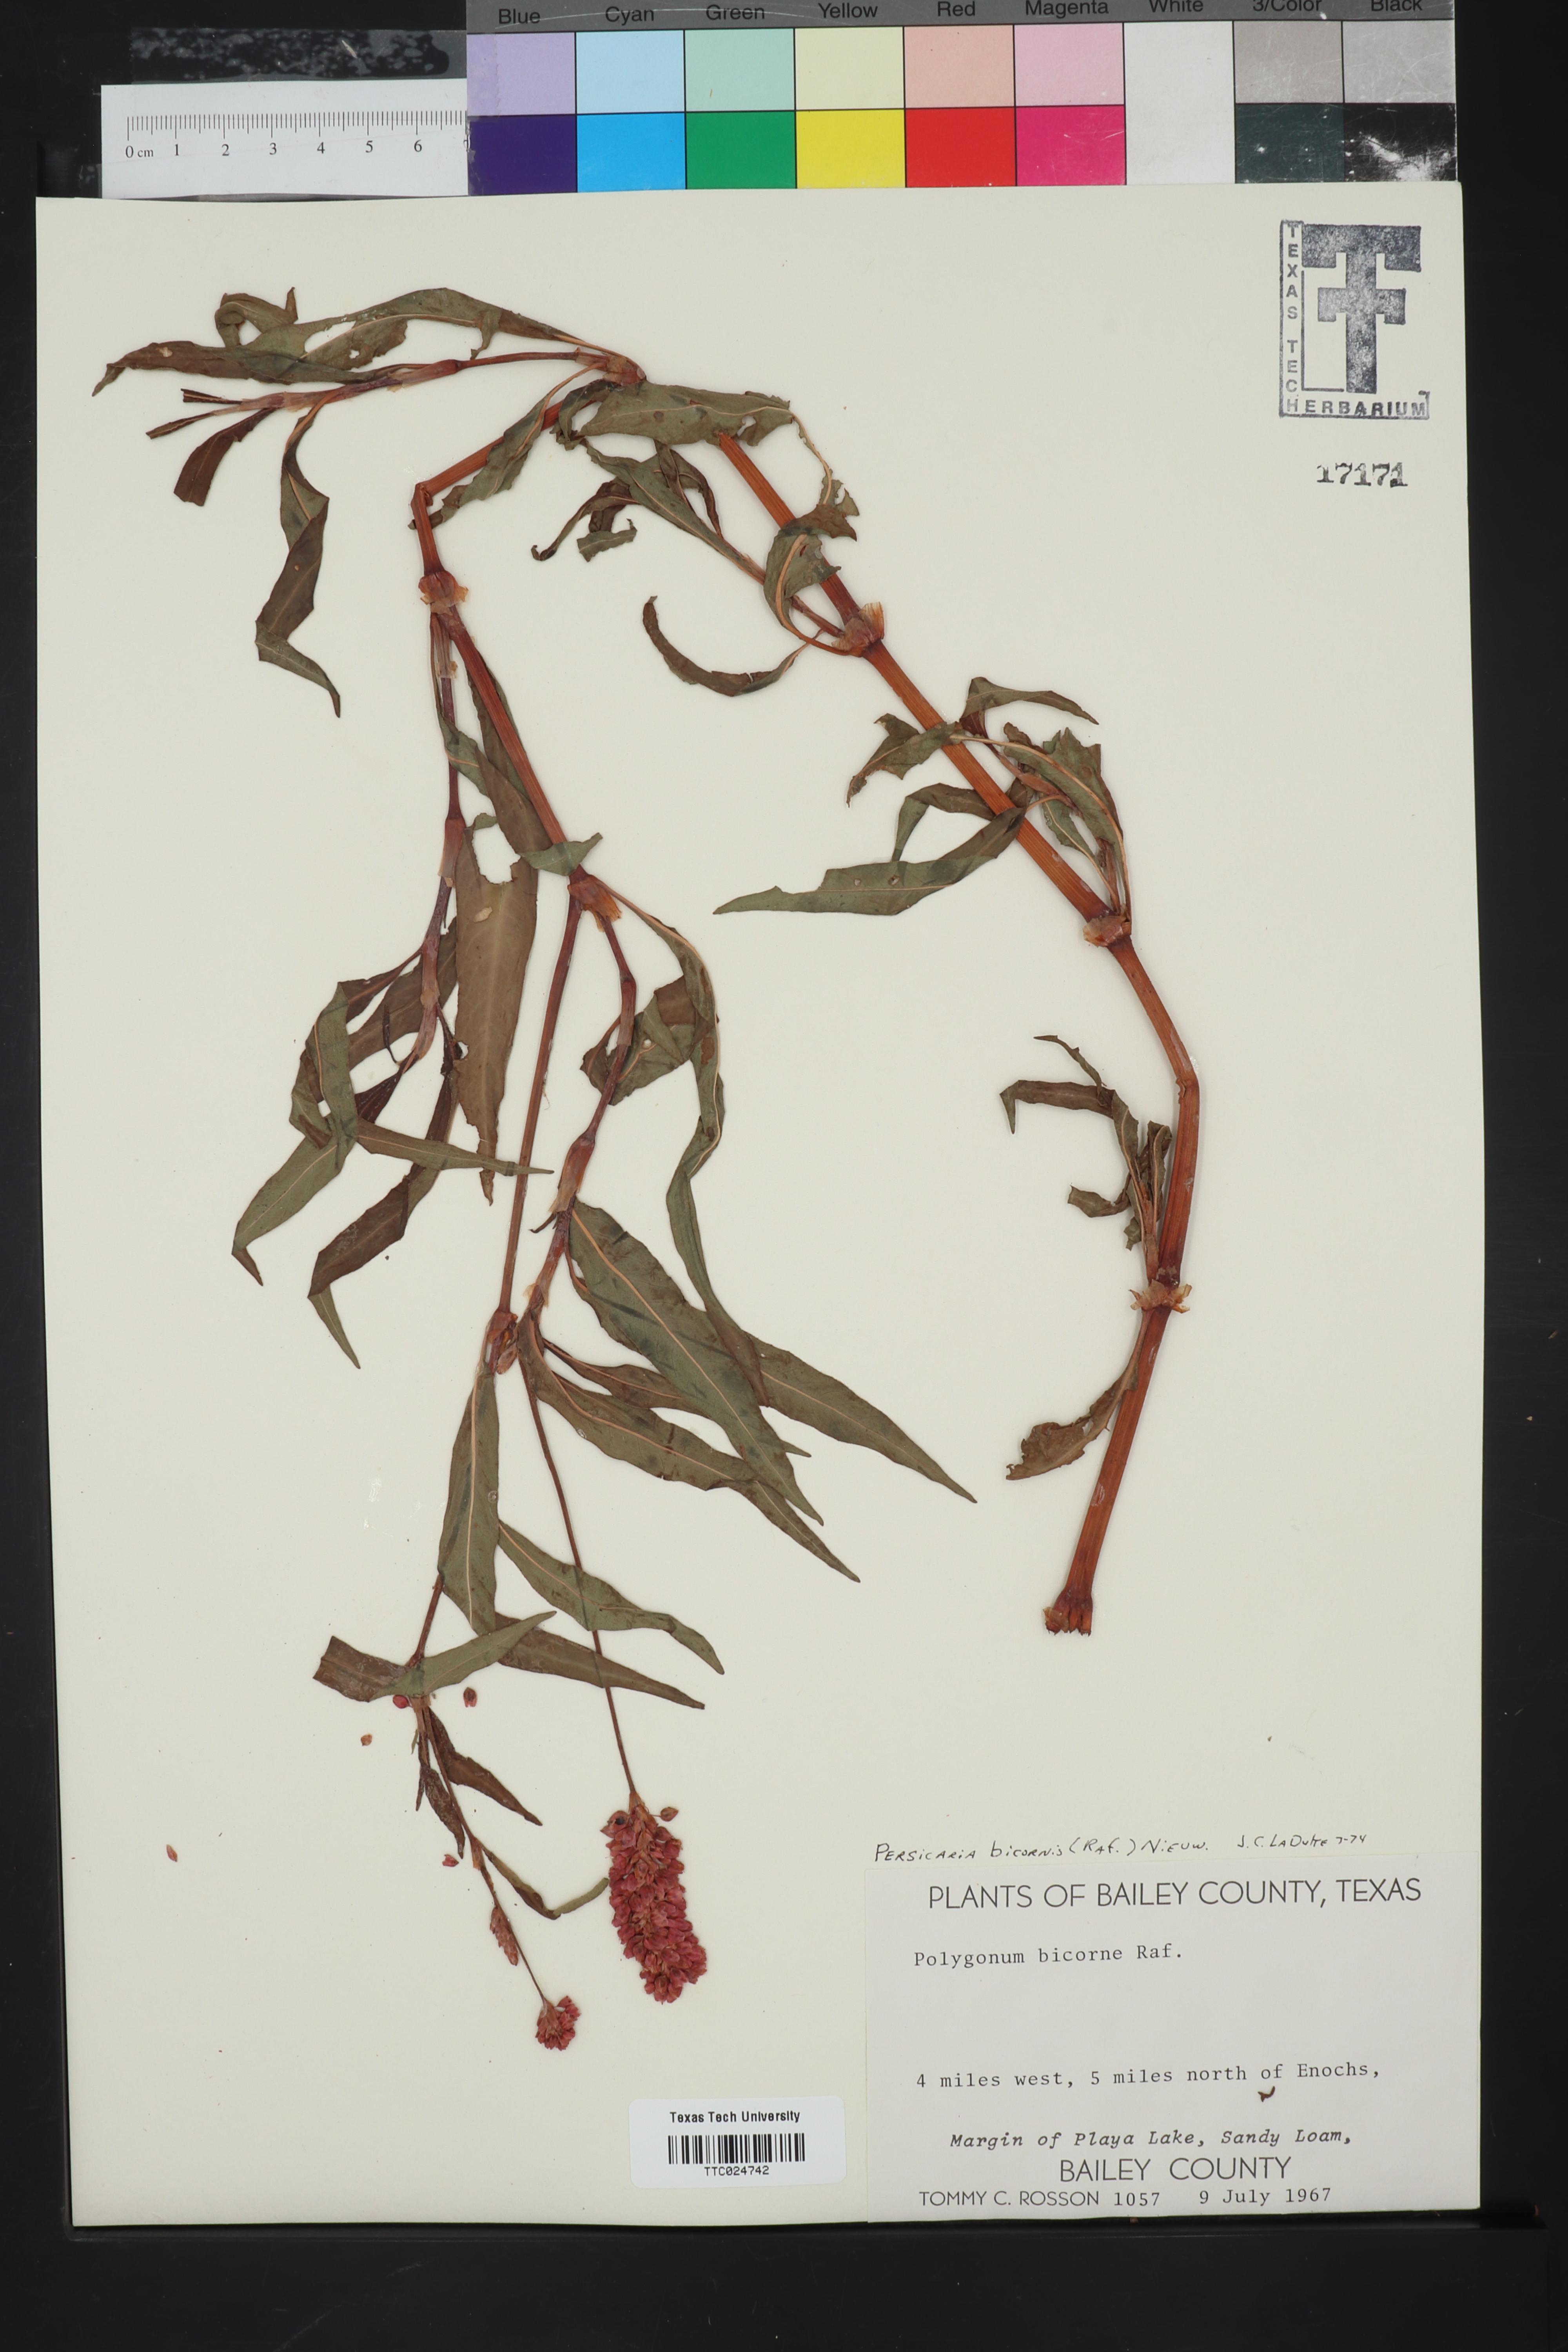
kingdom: Plantae
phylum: Tracheophyta
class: Magnoliopsida
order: Caryophyllales
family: Polygonaceae
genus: Persicaria
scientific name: Persicaria bicornis
